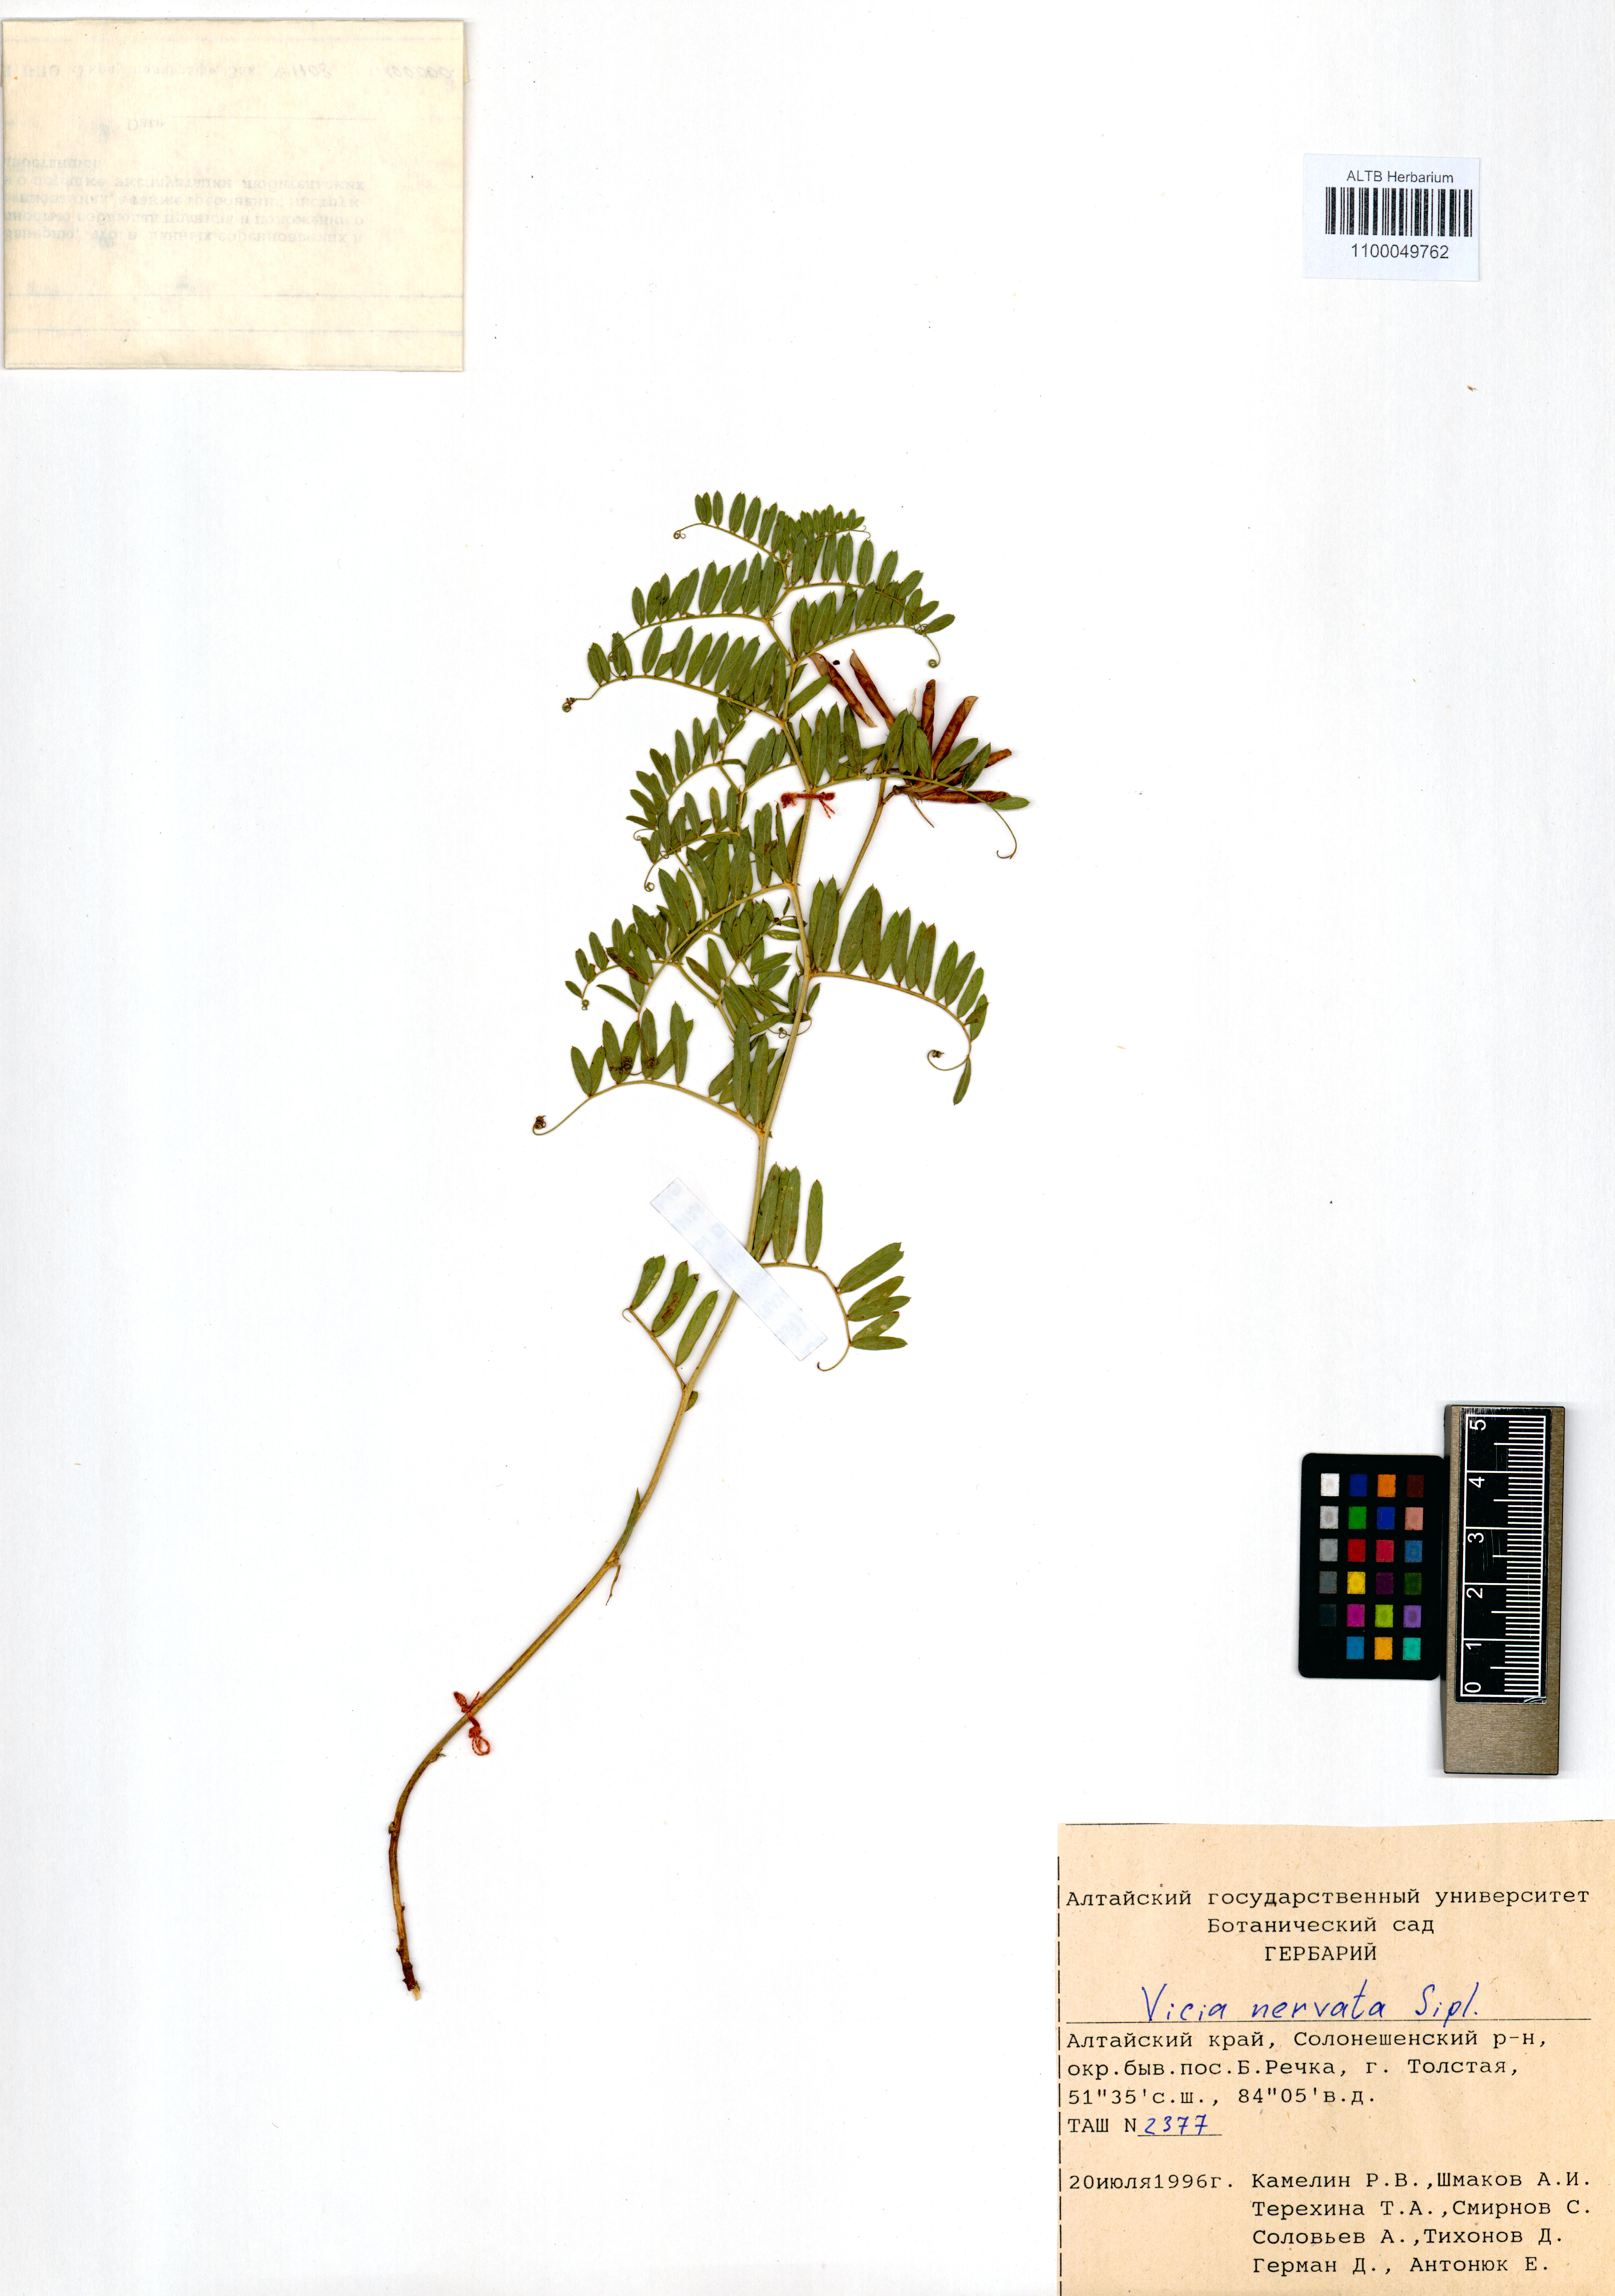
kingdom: Plantae
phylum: Tracheophyta
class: Magnoliopsida
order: Fabales
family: Fabaceae
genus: Vicia
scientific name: Vicia multicaulis
